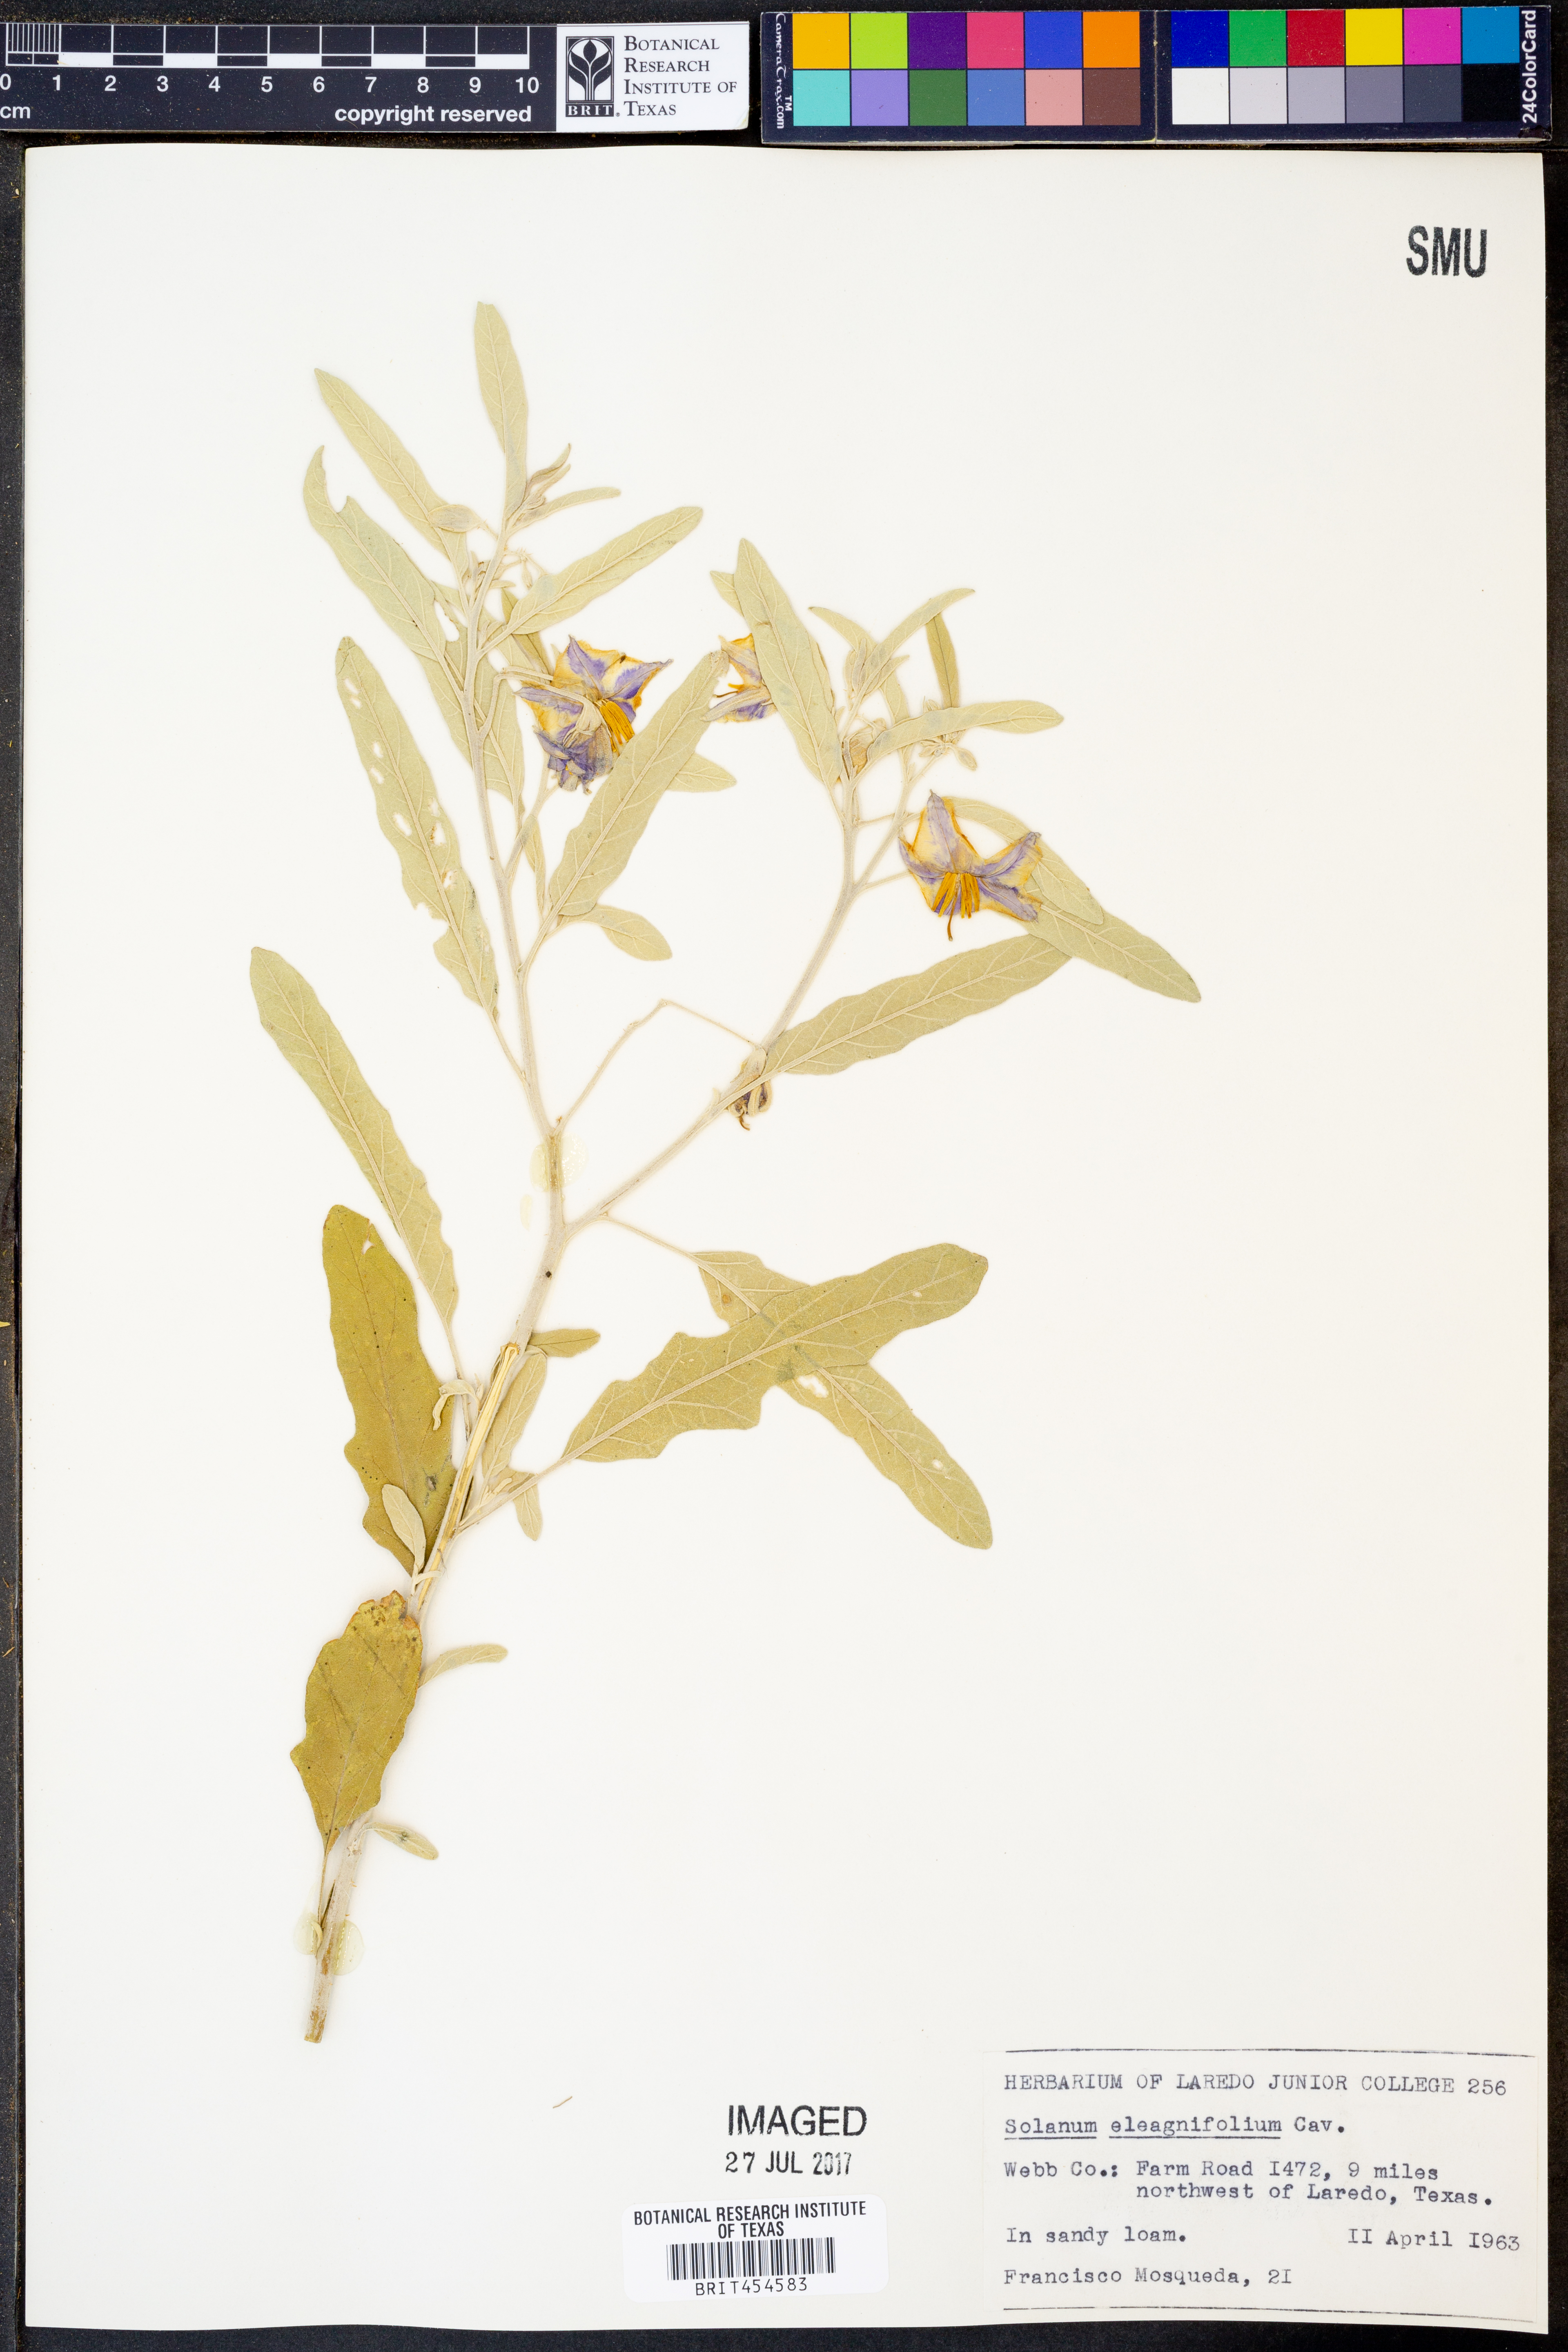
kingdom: Plantae
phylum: Tracheophyta
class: Magnoliopsida
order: Solanales
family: Solanaceae
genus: Solanum
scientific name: Solanum elaeagnifolium
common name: Silverleaf nightshade
